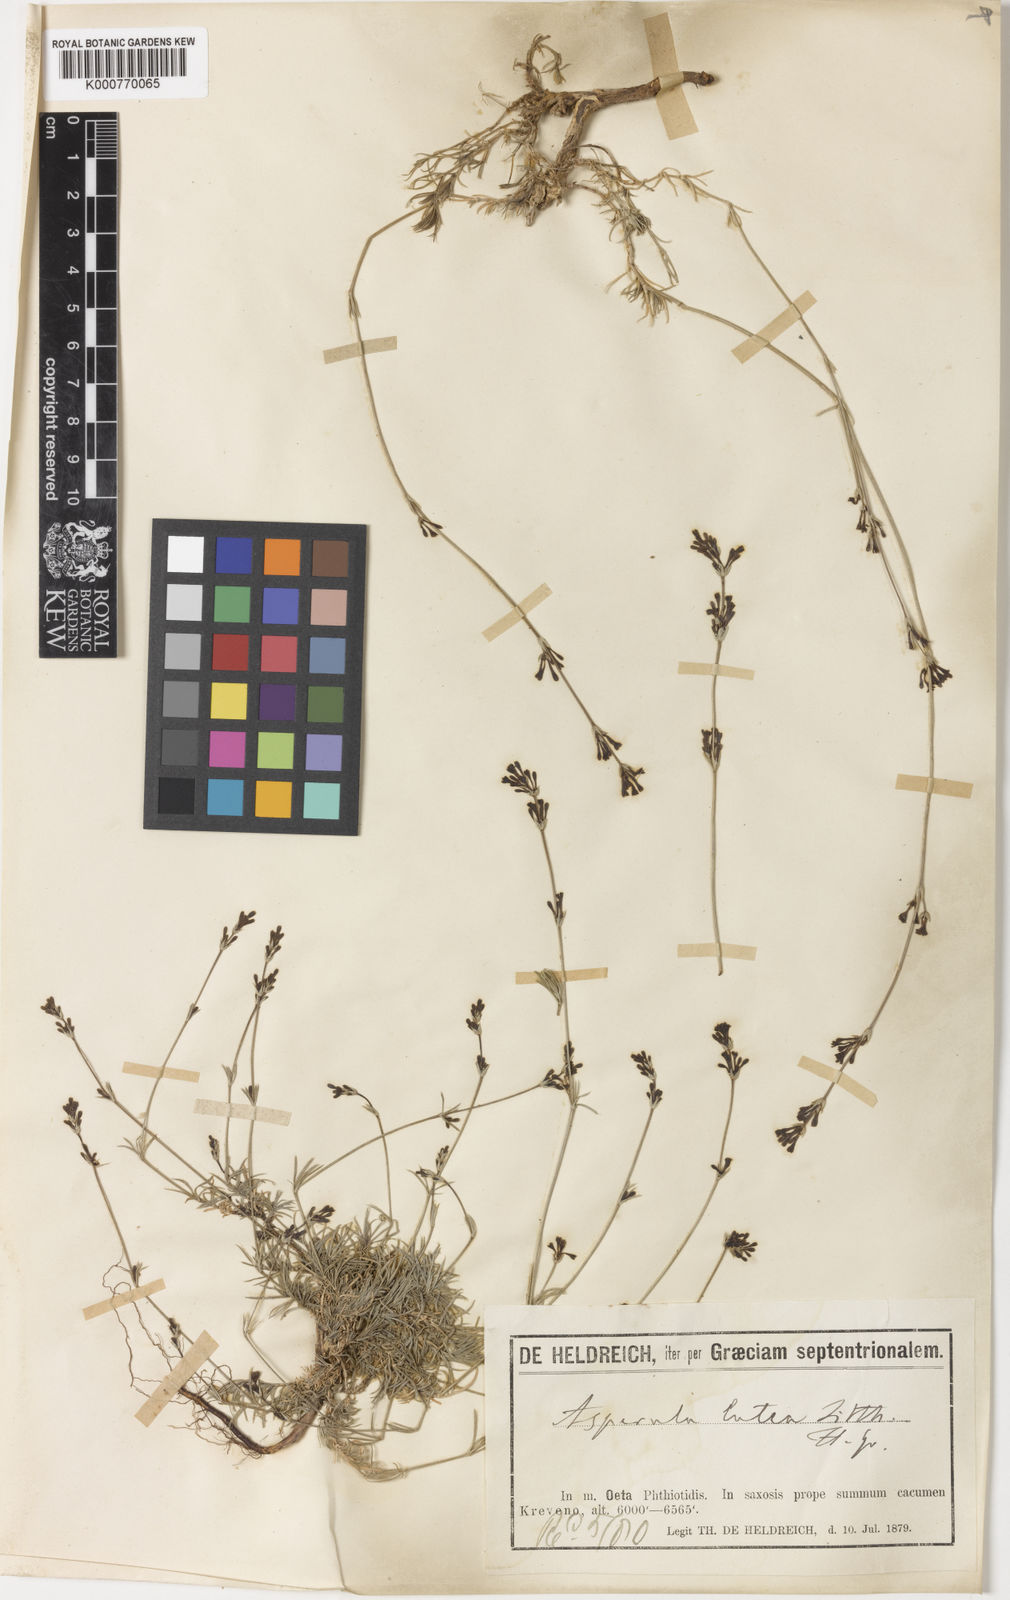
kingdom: Plantae
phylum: Tracheophyta
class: Magnoliopsida
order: Gentianales
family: Rubiaceae
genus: Asperula
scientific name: Asperula
